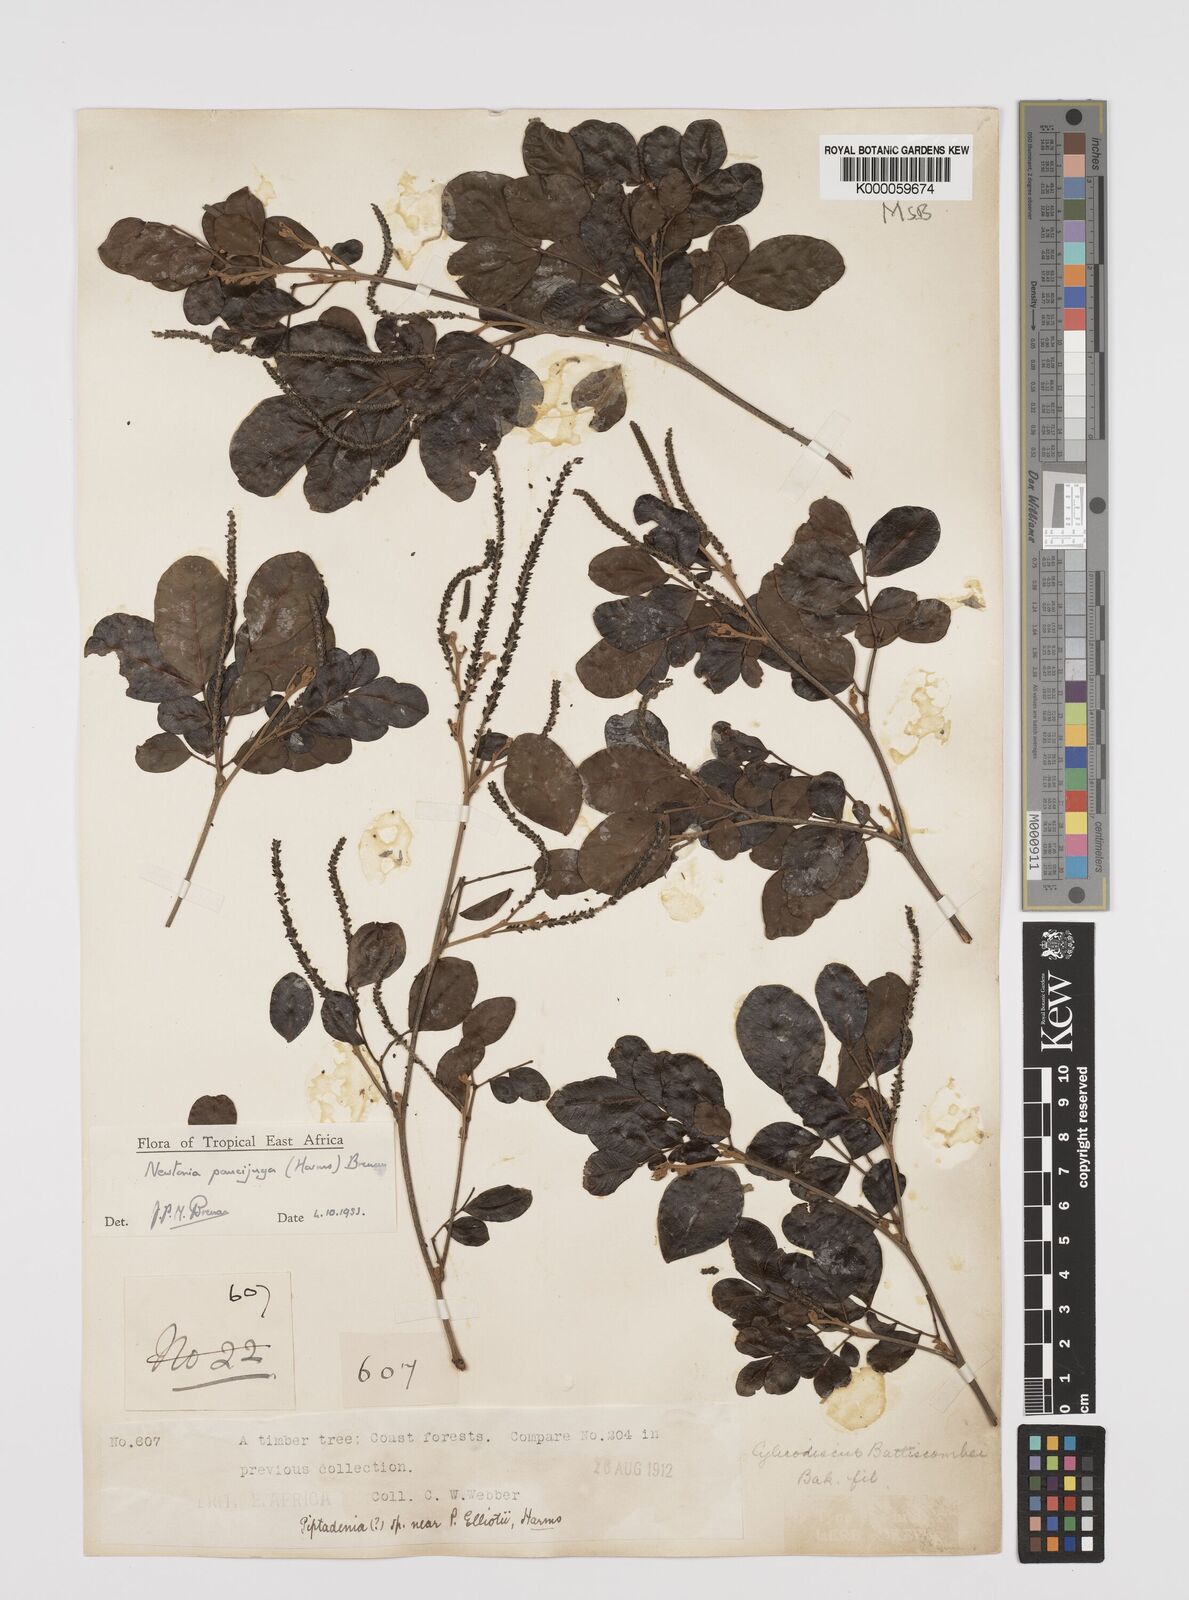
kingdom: Plantae
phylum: Tracheophyta
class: Magnoliopsida
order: Fabales
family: Fabaceae
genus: Newtonia
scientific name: Newtonia paucijuga
